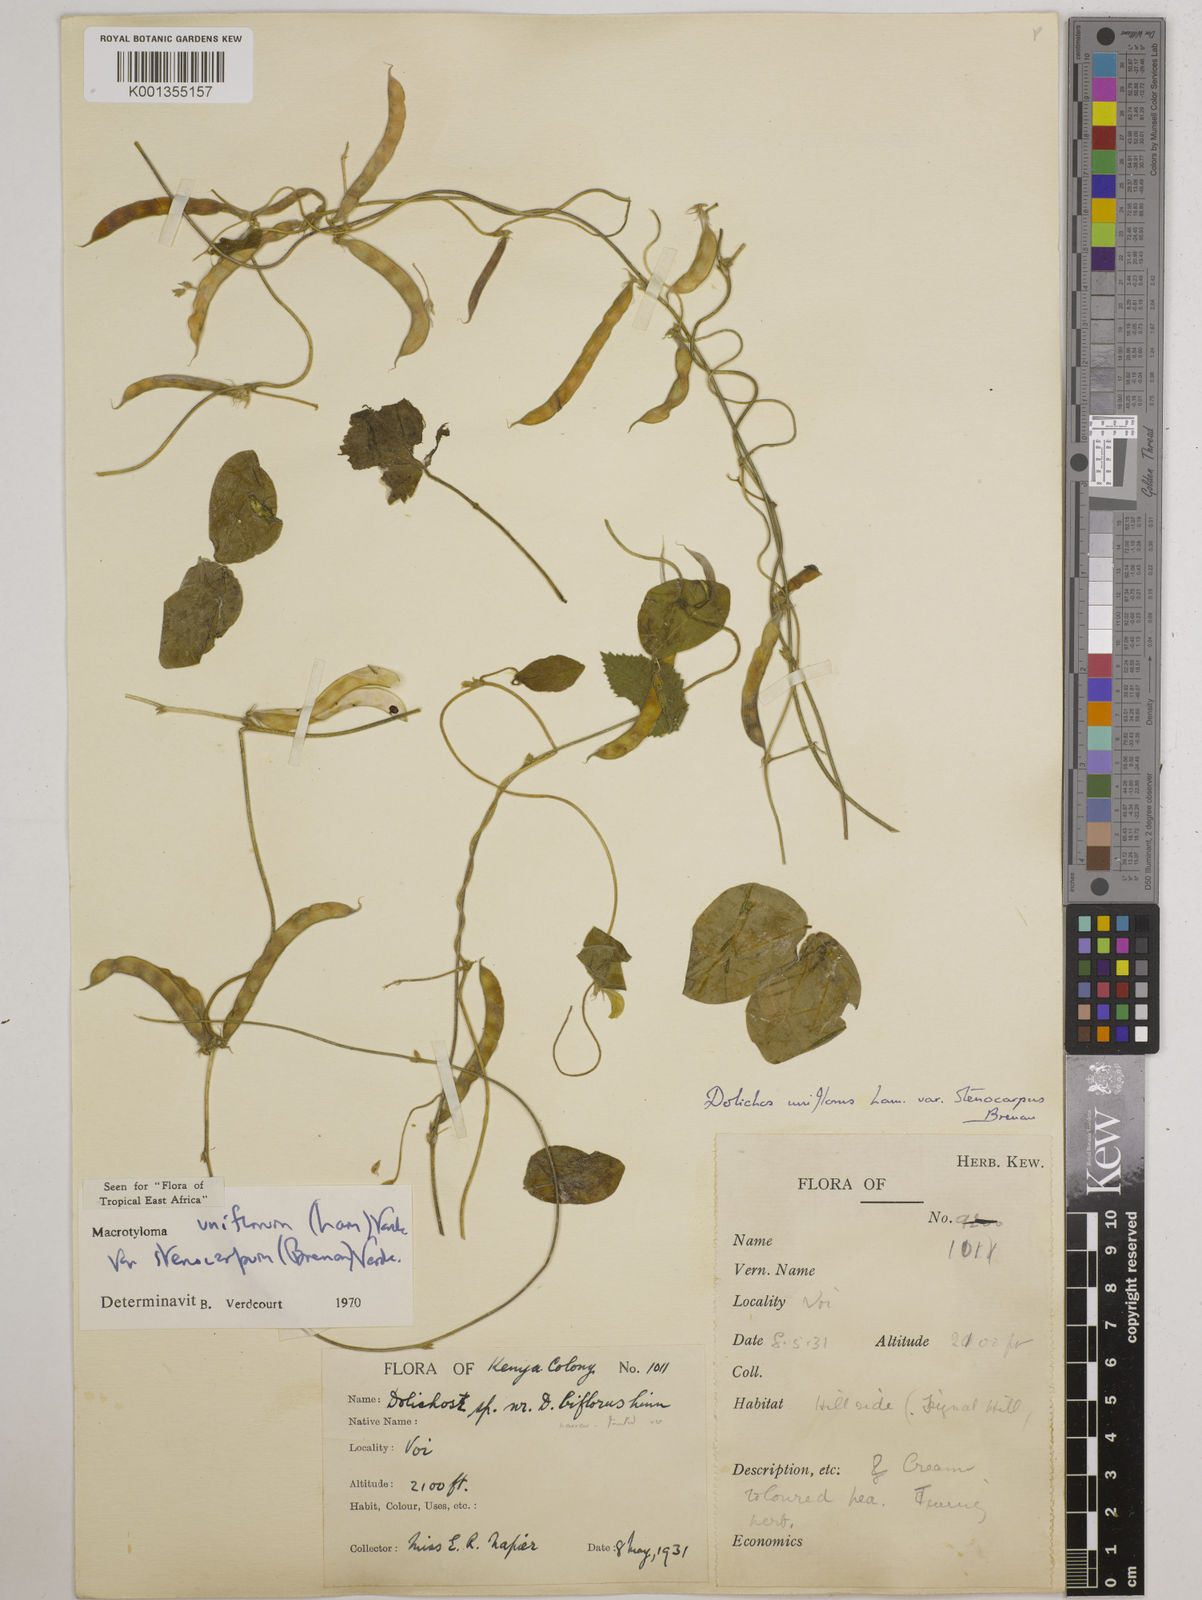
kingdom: Plantae
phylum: Tracheophyta
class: Magnoliopsida
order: Fabales
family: Fabaceae
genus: Macrotyloma
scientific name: Macrotyloma
